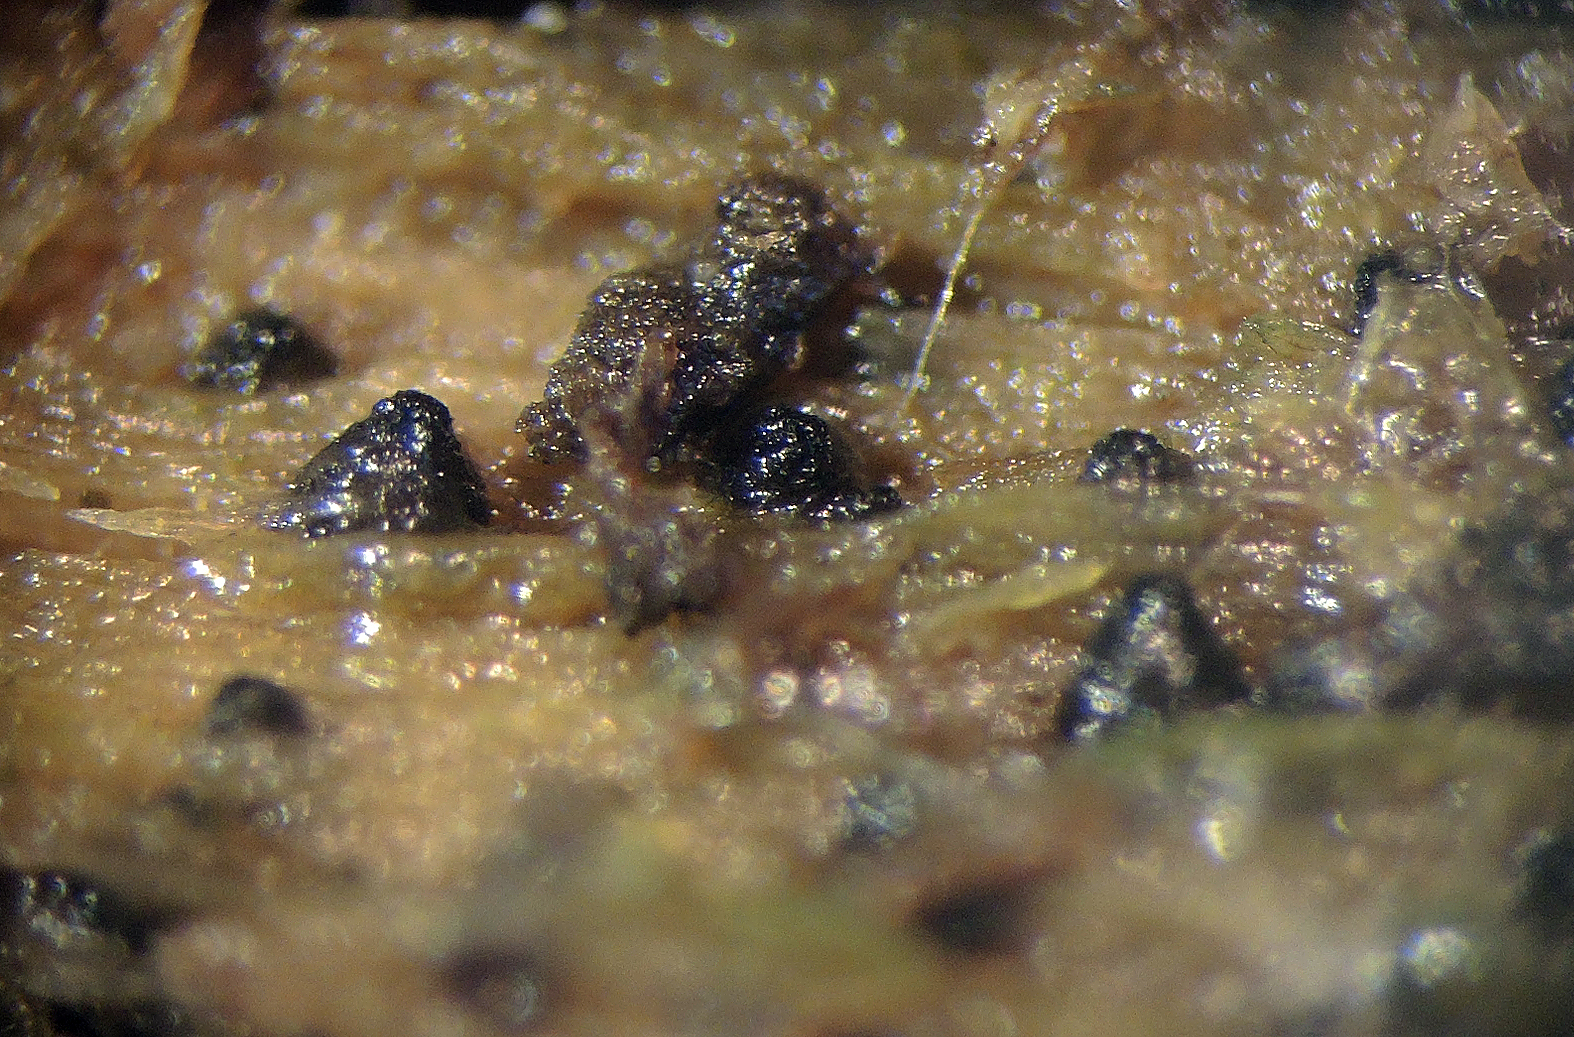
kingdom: Fungi
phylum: Ascomycota
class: Sordariomycetes
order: Sordariales
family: Lasiosphaeridaceae
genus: Lasiosphaeris
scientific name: Lasiosphaeris
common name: kernesvamp
